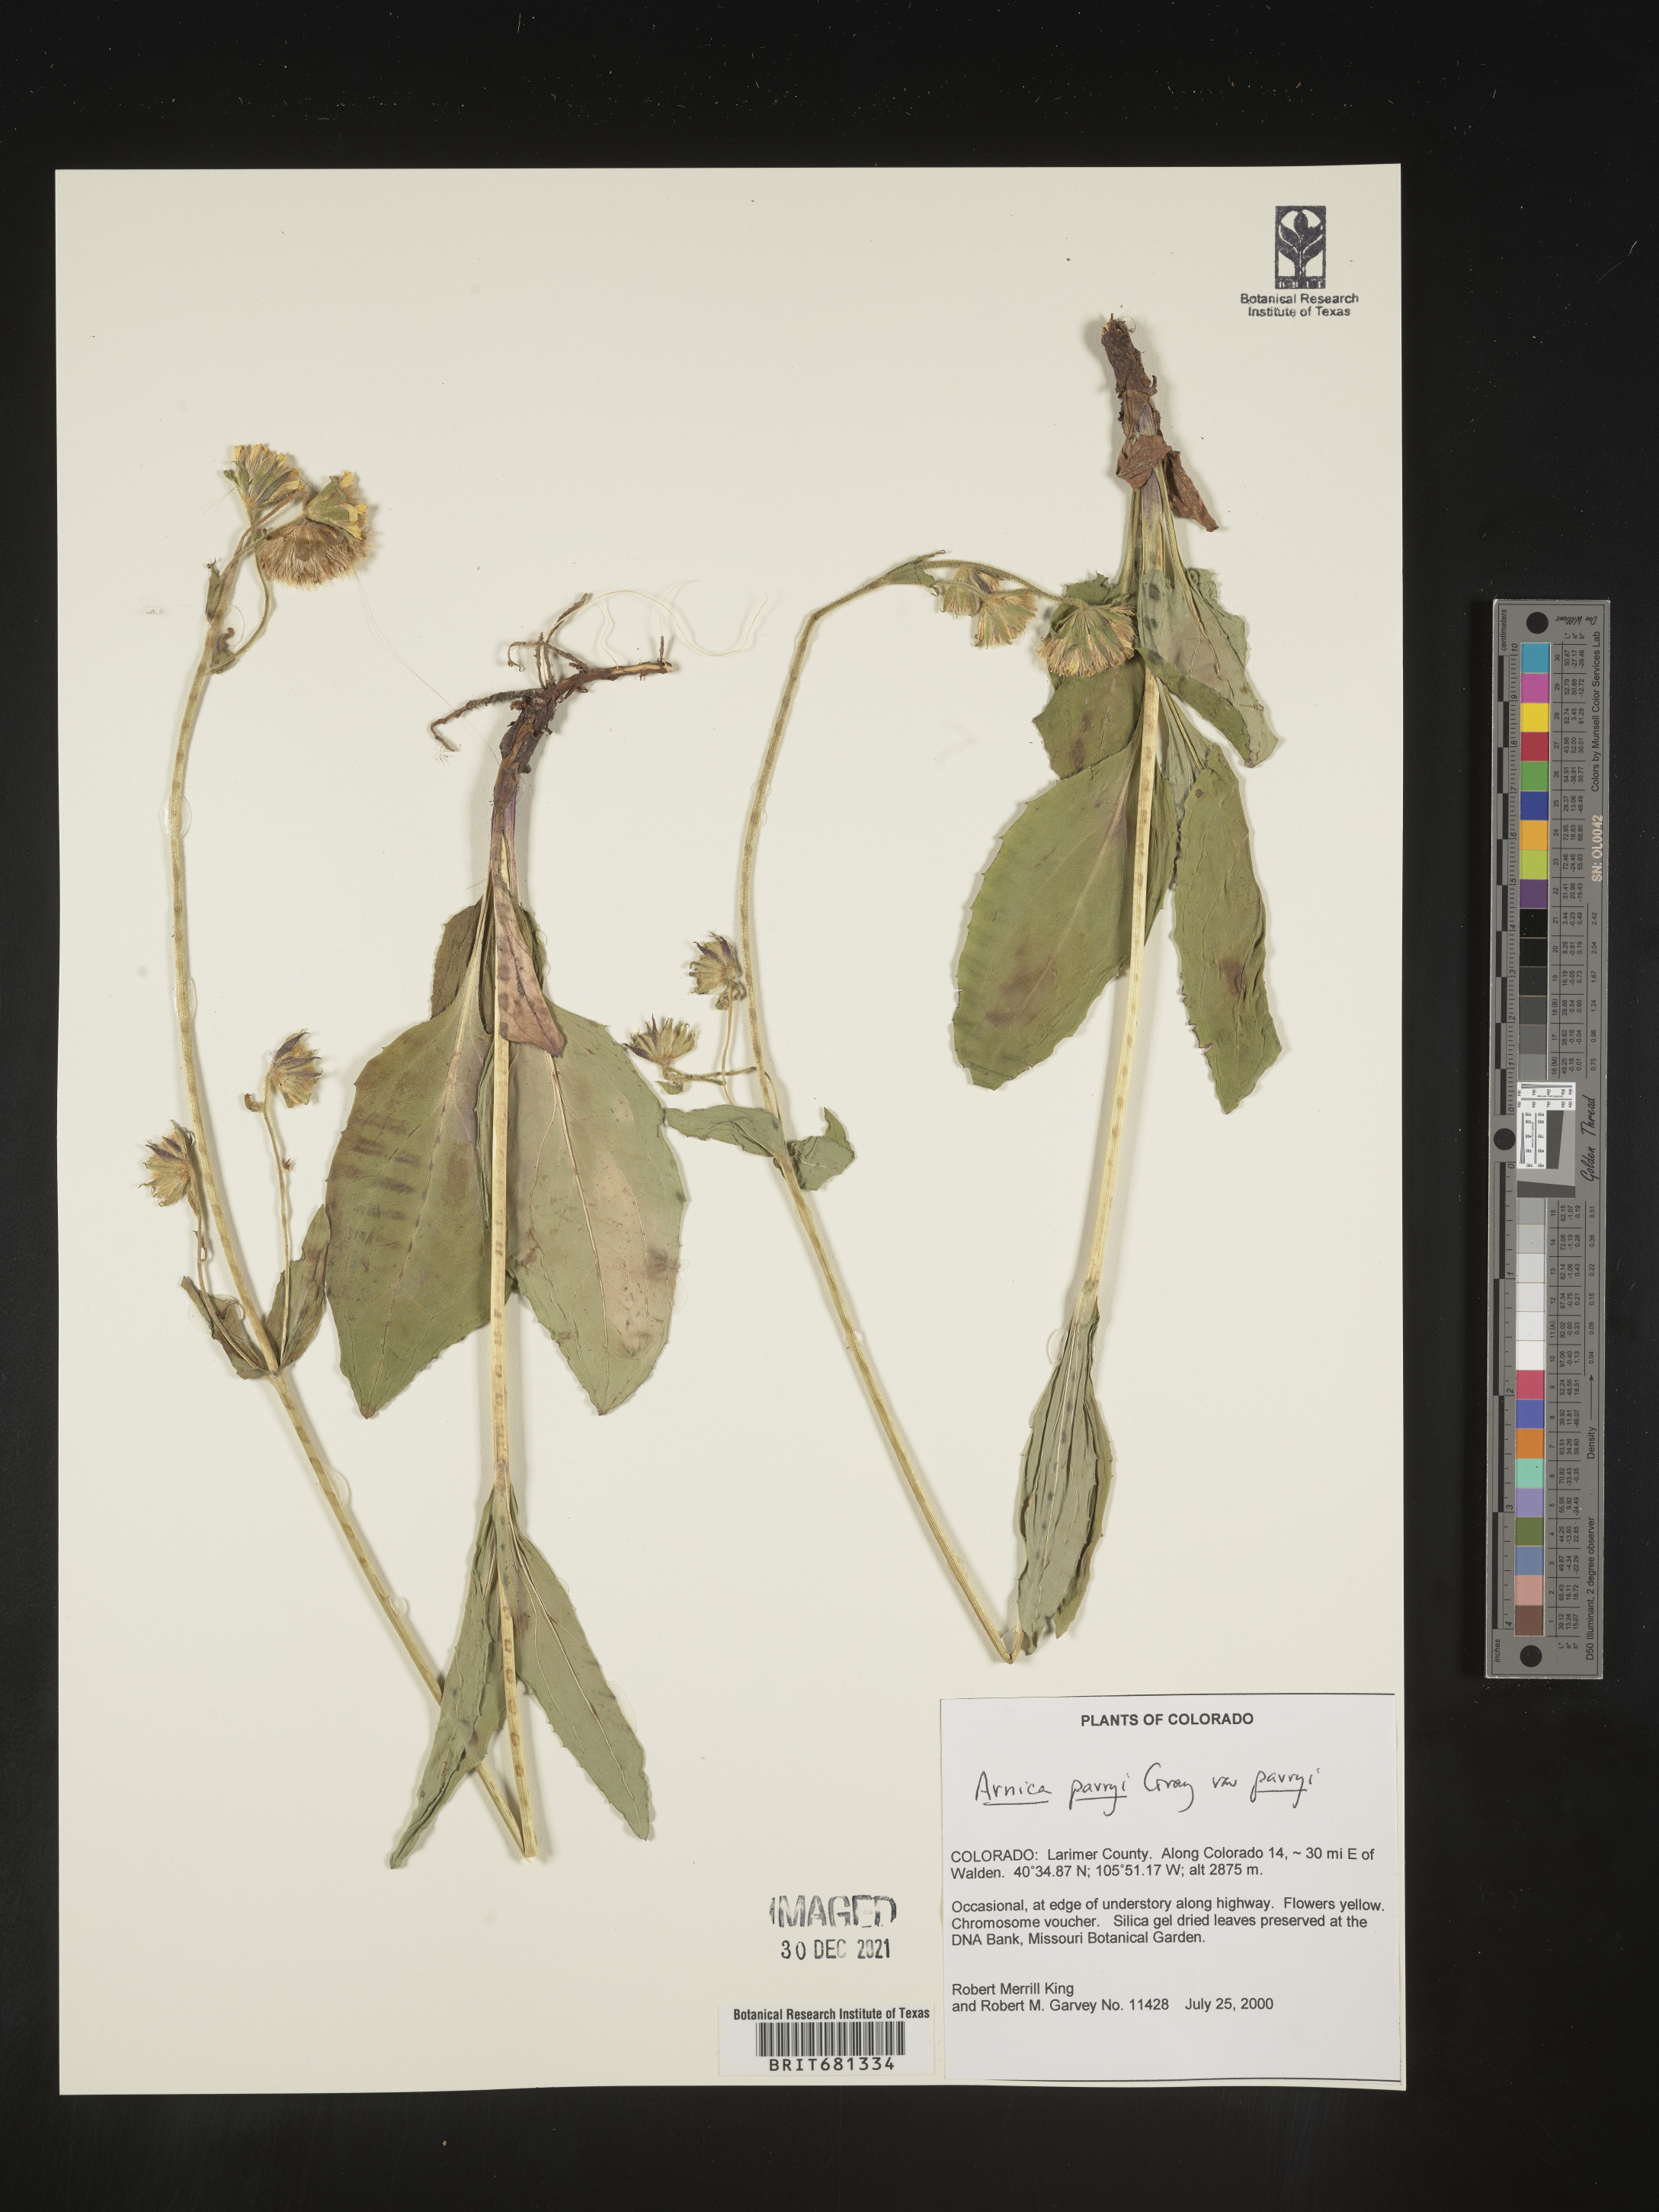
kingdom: Plantae
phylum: Tracheophyta
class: Magnoliopsida
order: Asterales
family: Asteraceae
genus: Arnica
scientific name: Arnica parryi
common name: Parry's arnica
